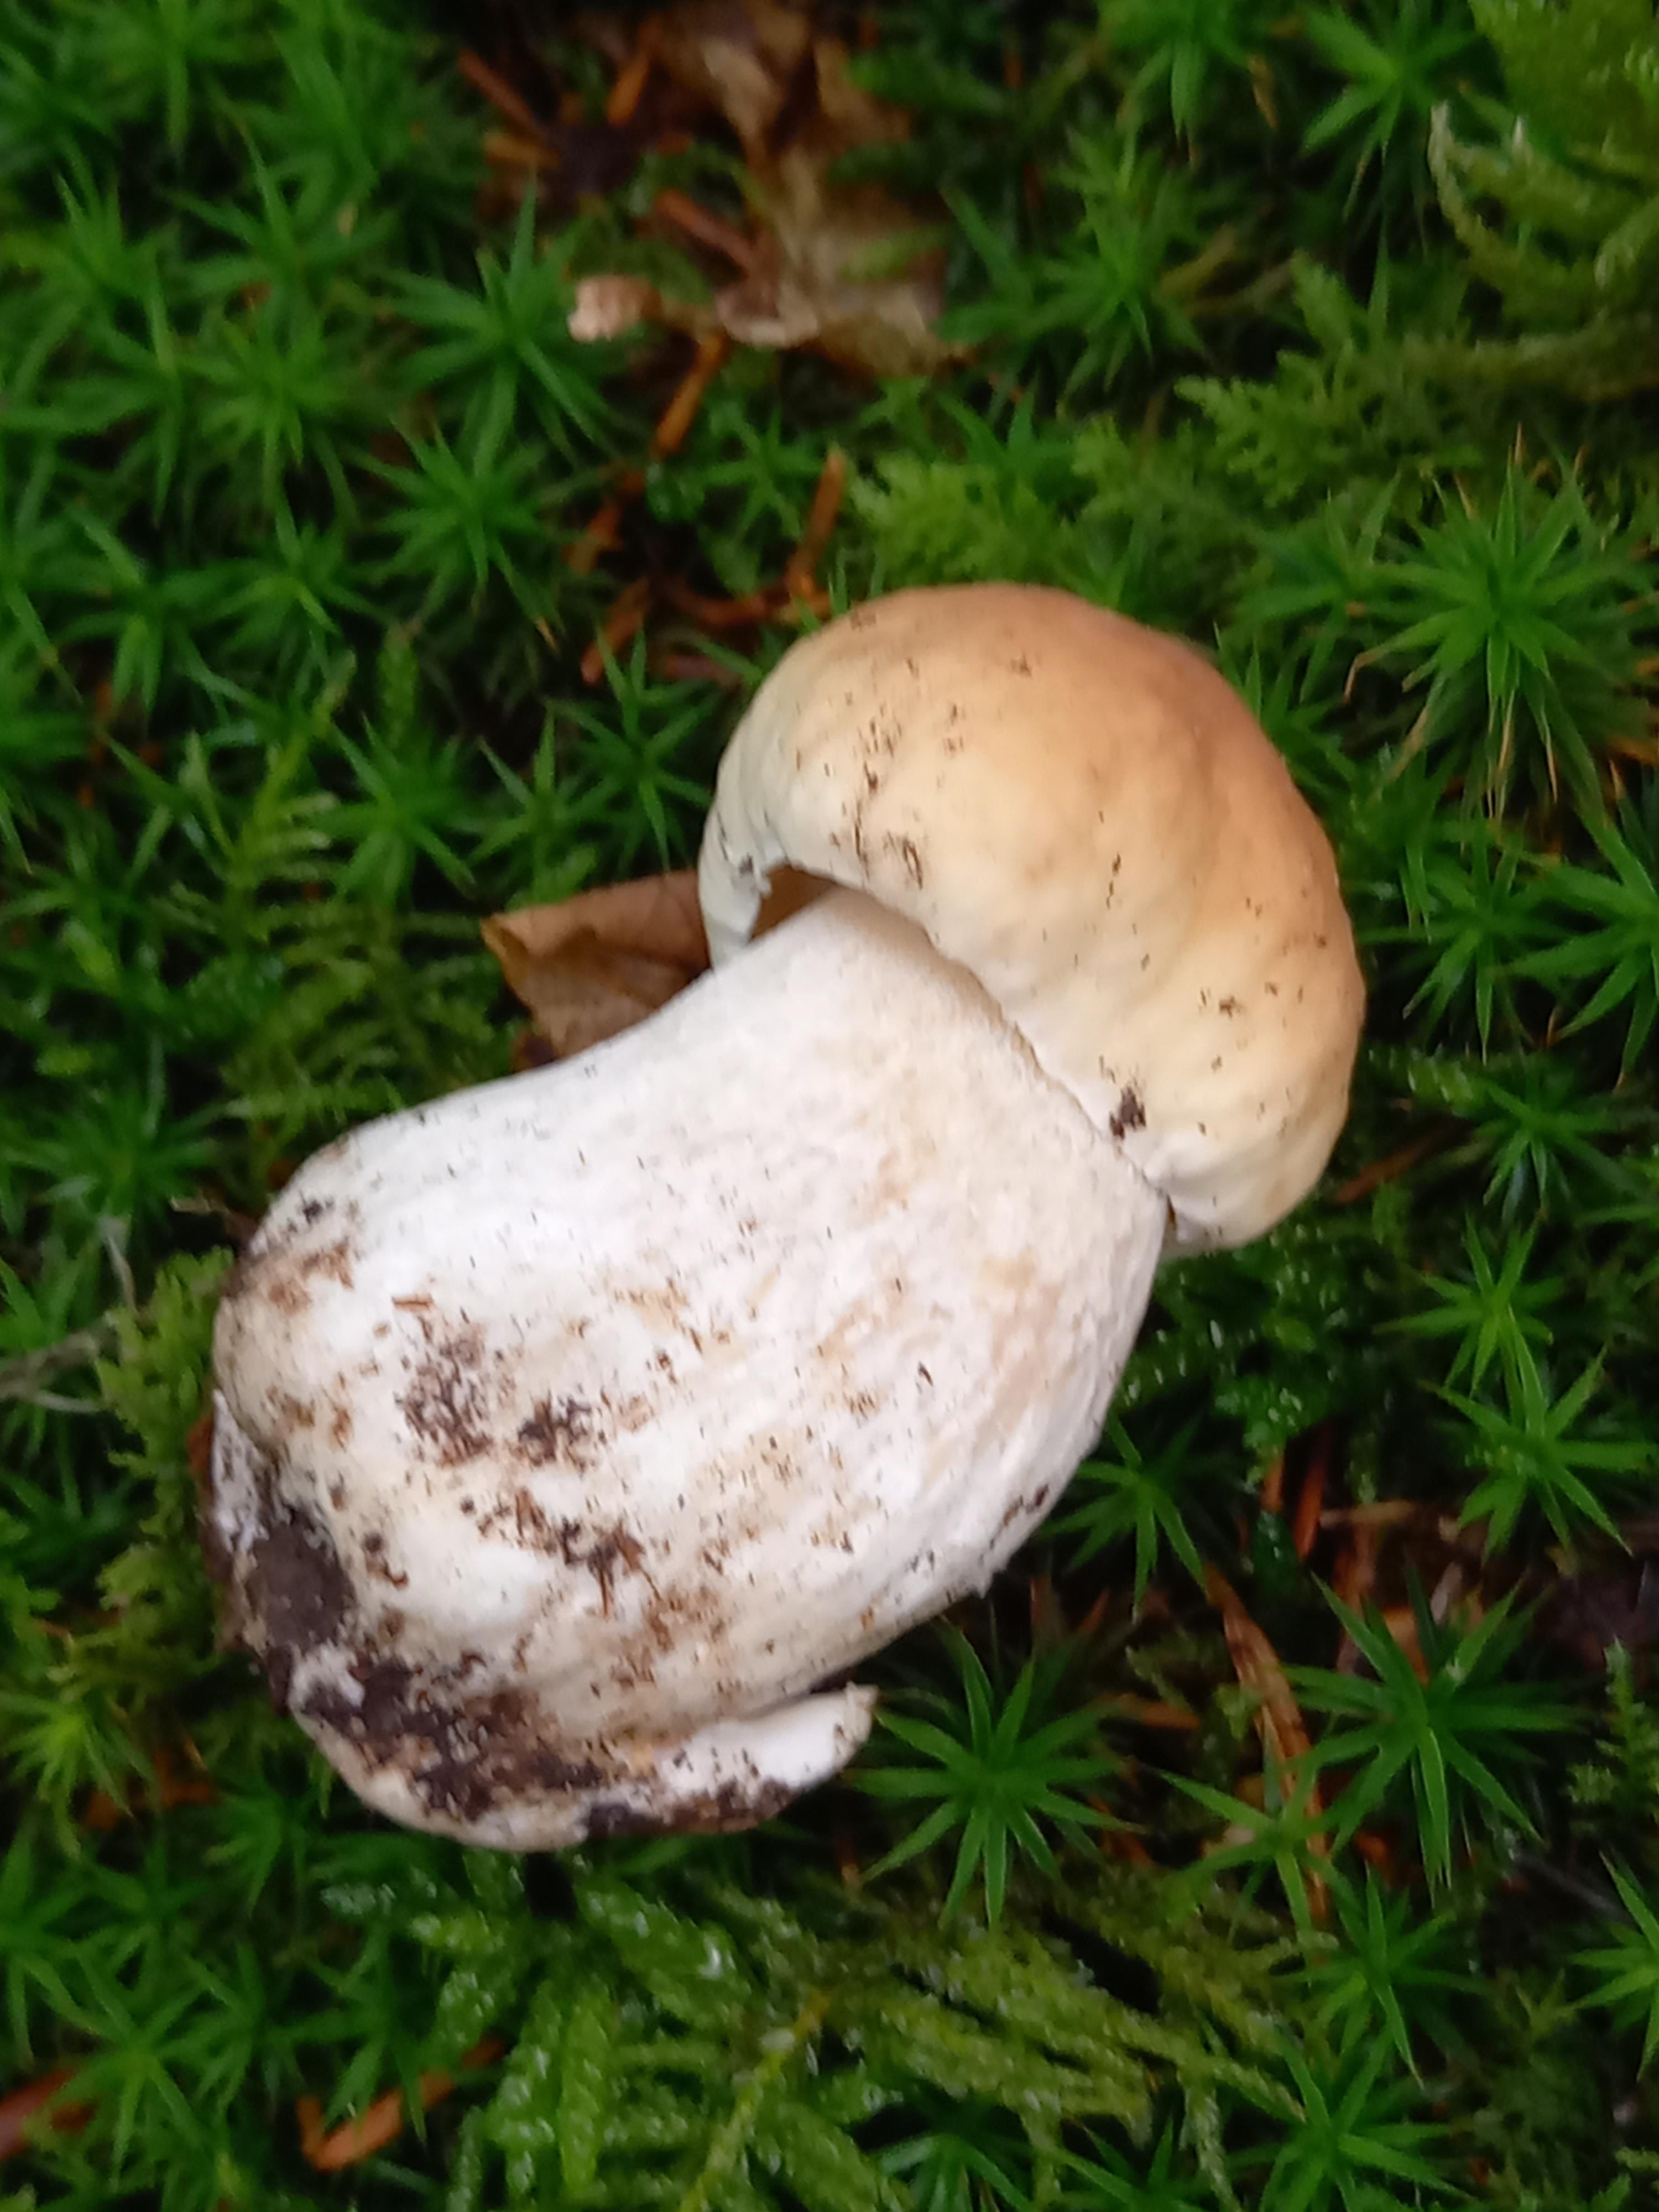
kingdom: Fungi
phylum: Basidiomycota
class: Agaricomycetes
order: Boletales
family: Boletaceae
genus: Boletus
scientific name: Boletus edulis
